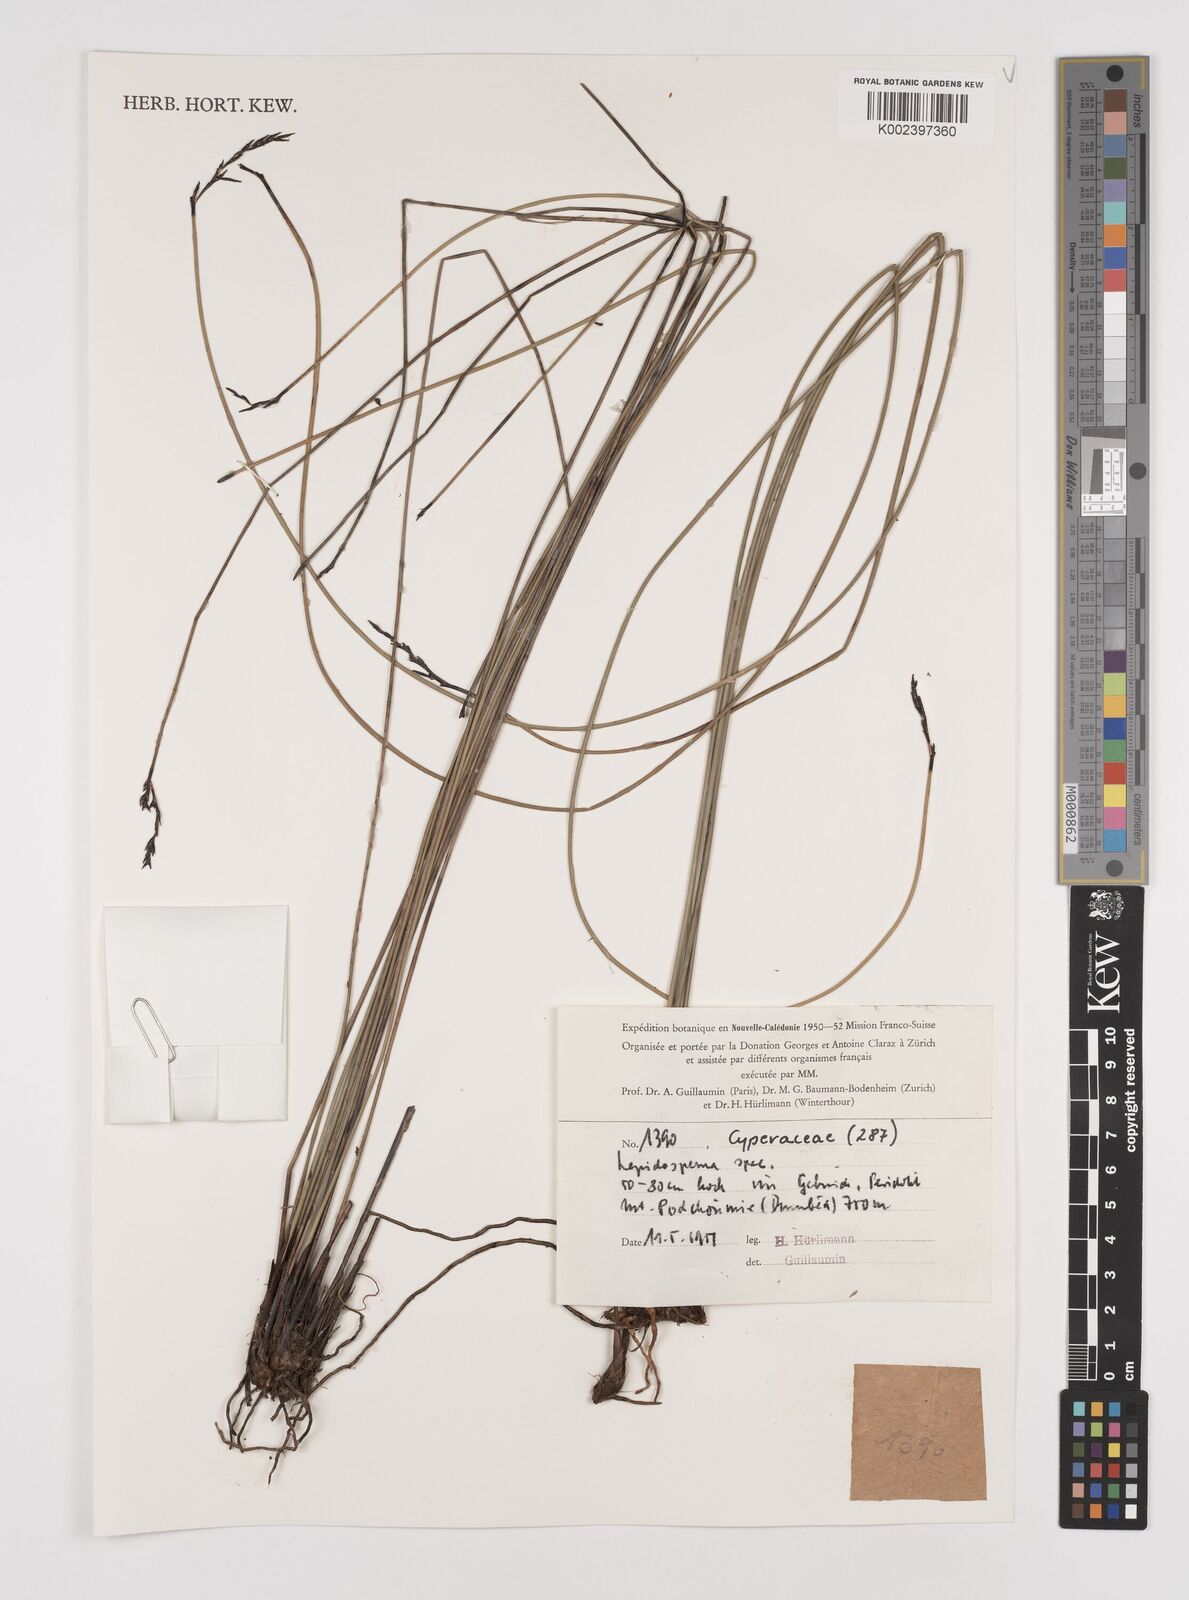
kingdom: Plantae
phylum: Tracheophyta
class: Liliopsida
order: Poales
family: Cyperaceae
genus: Lepidosperma
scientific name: Lepidosperma
